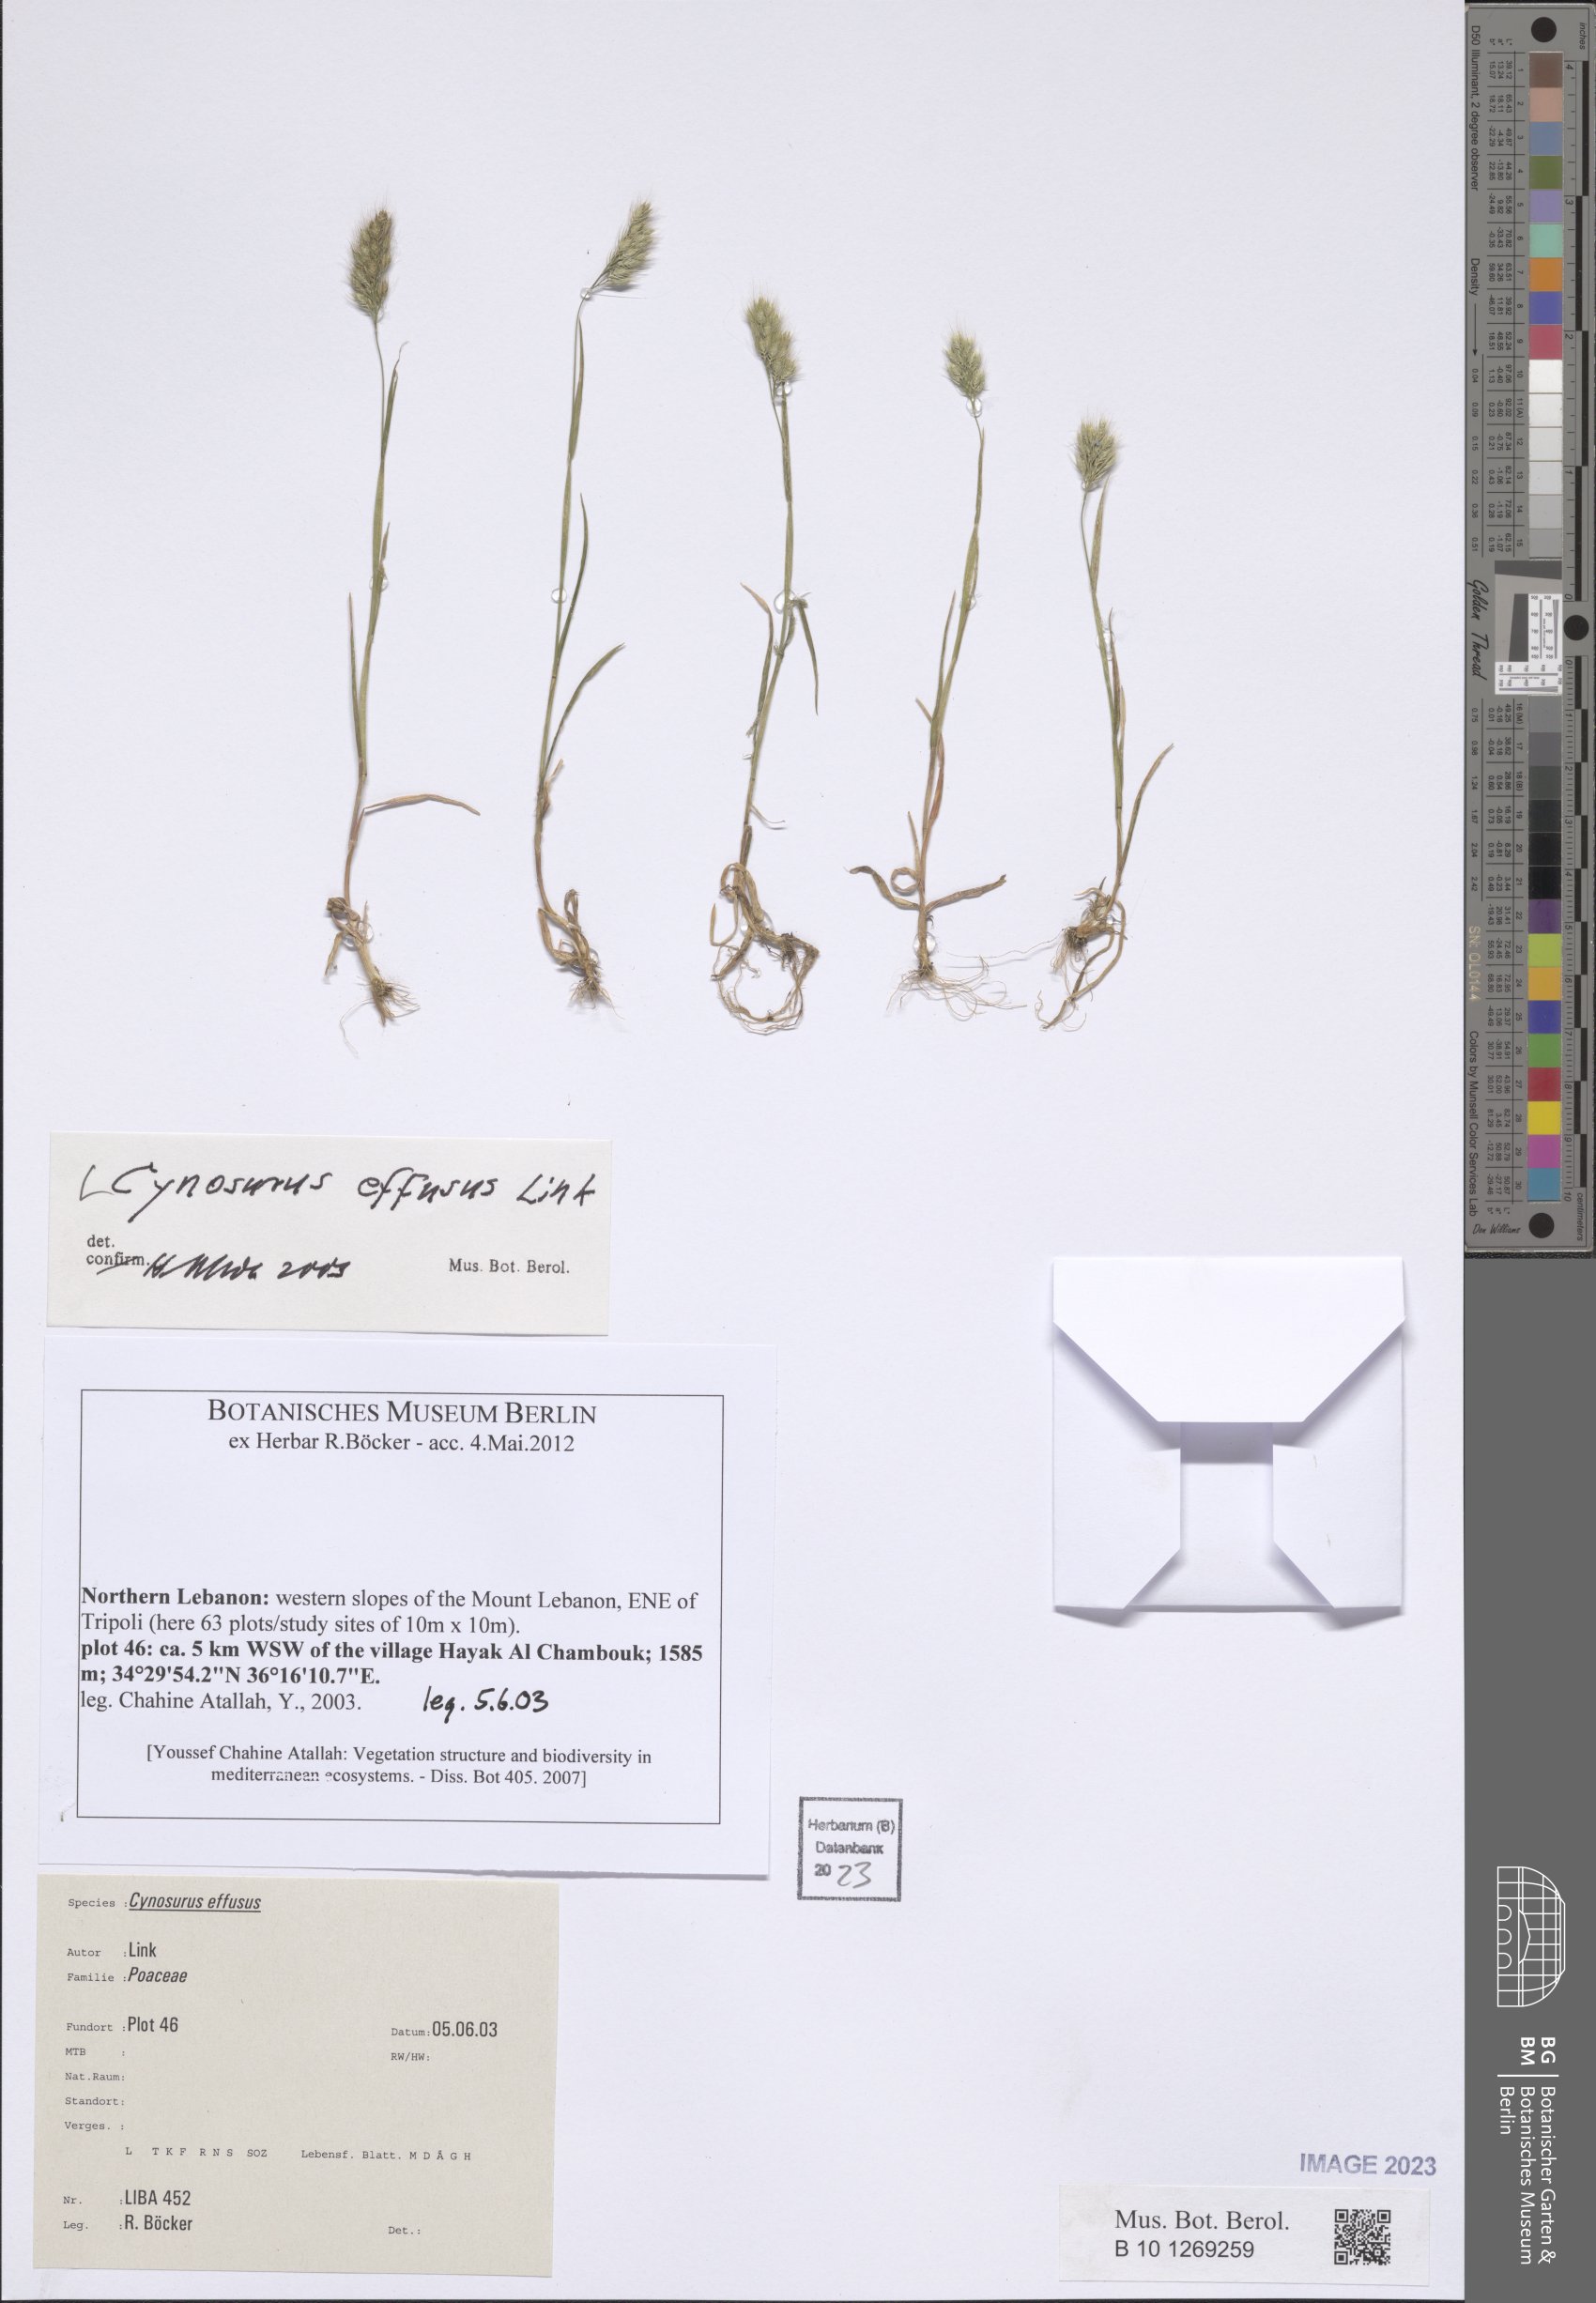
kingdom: Plantae
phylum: Tracheophyta
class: Liliopsida
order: Poales
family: Poaceae
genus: Cynosurus
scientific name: Cynosurus effusus
